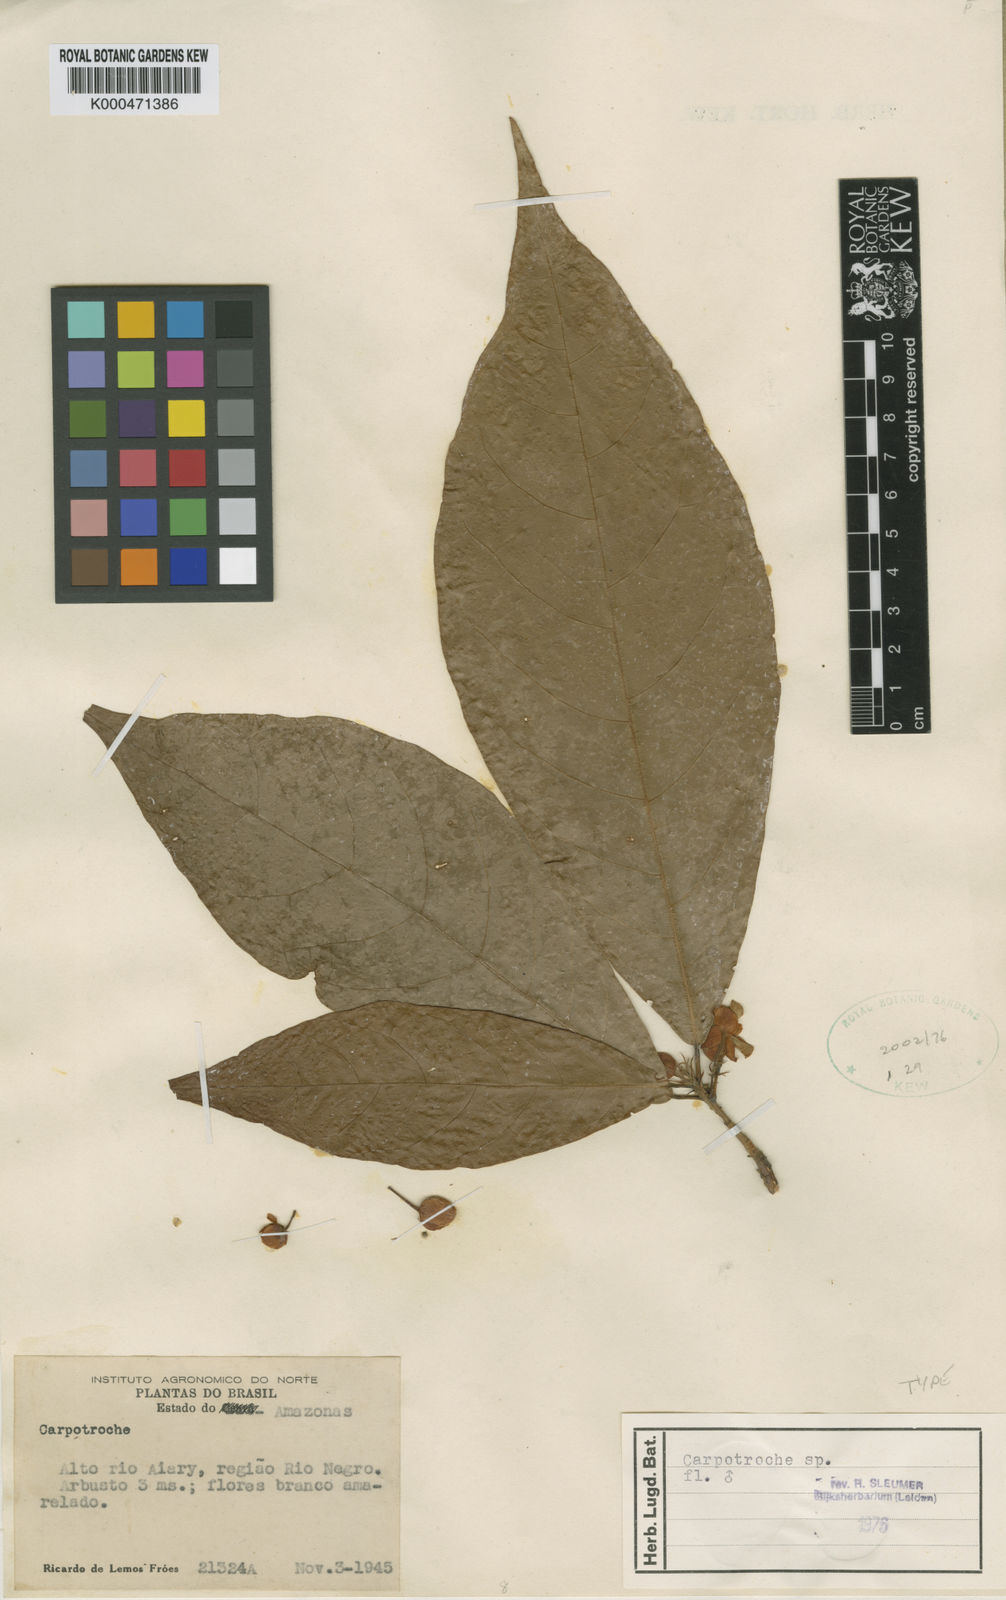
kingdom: Plantae
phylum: Tracheophyta
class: Magnoliopsida
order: Malpighiales
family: Achariaceae
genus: Carpotroche
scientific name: Carpotroche froesiana
